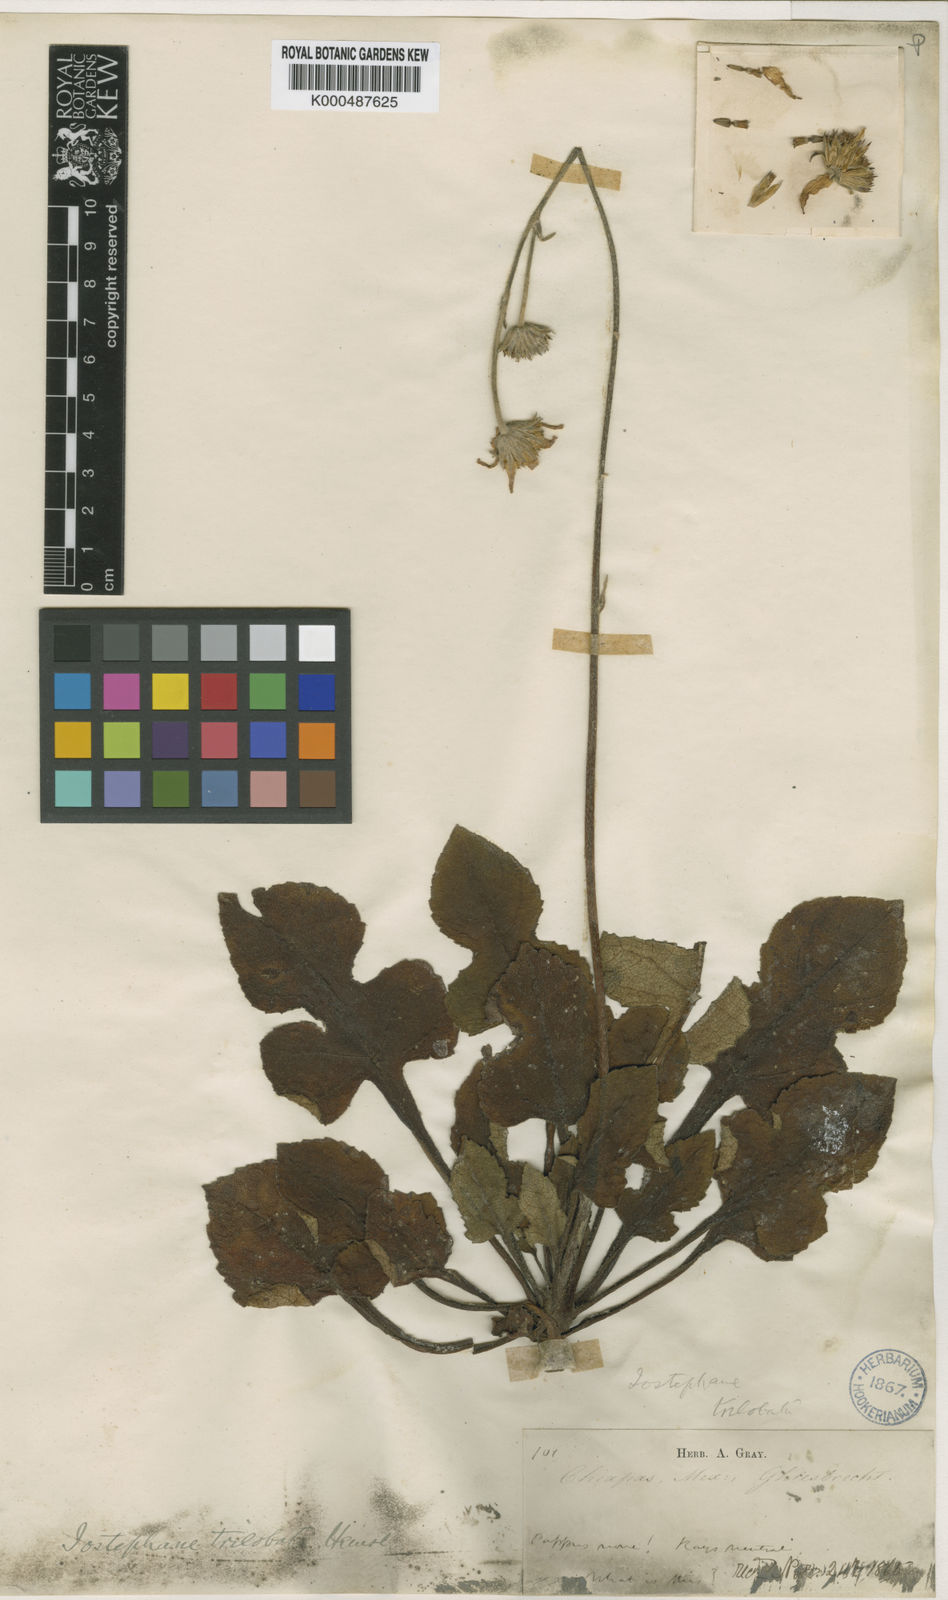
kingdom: Plantae
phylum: Tracheophyta
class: Magnoliopsida
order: Asterales
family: Asteraceae
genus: Iostephane
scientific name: Iostephane trilobata
